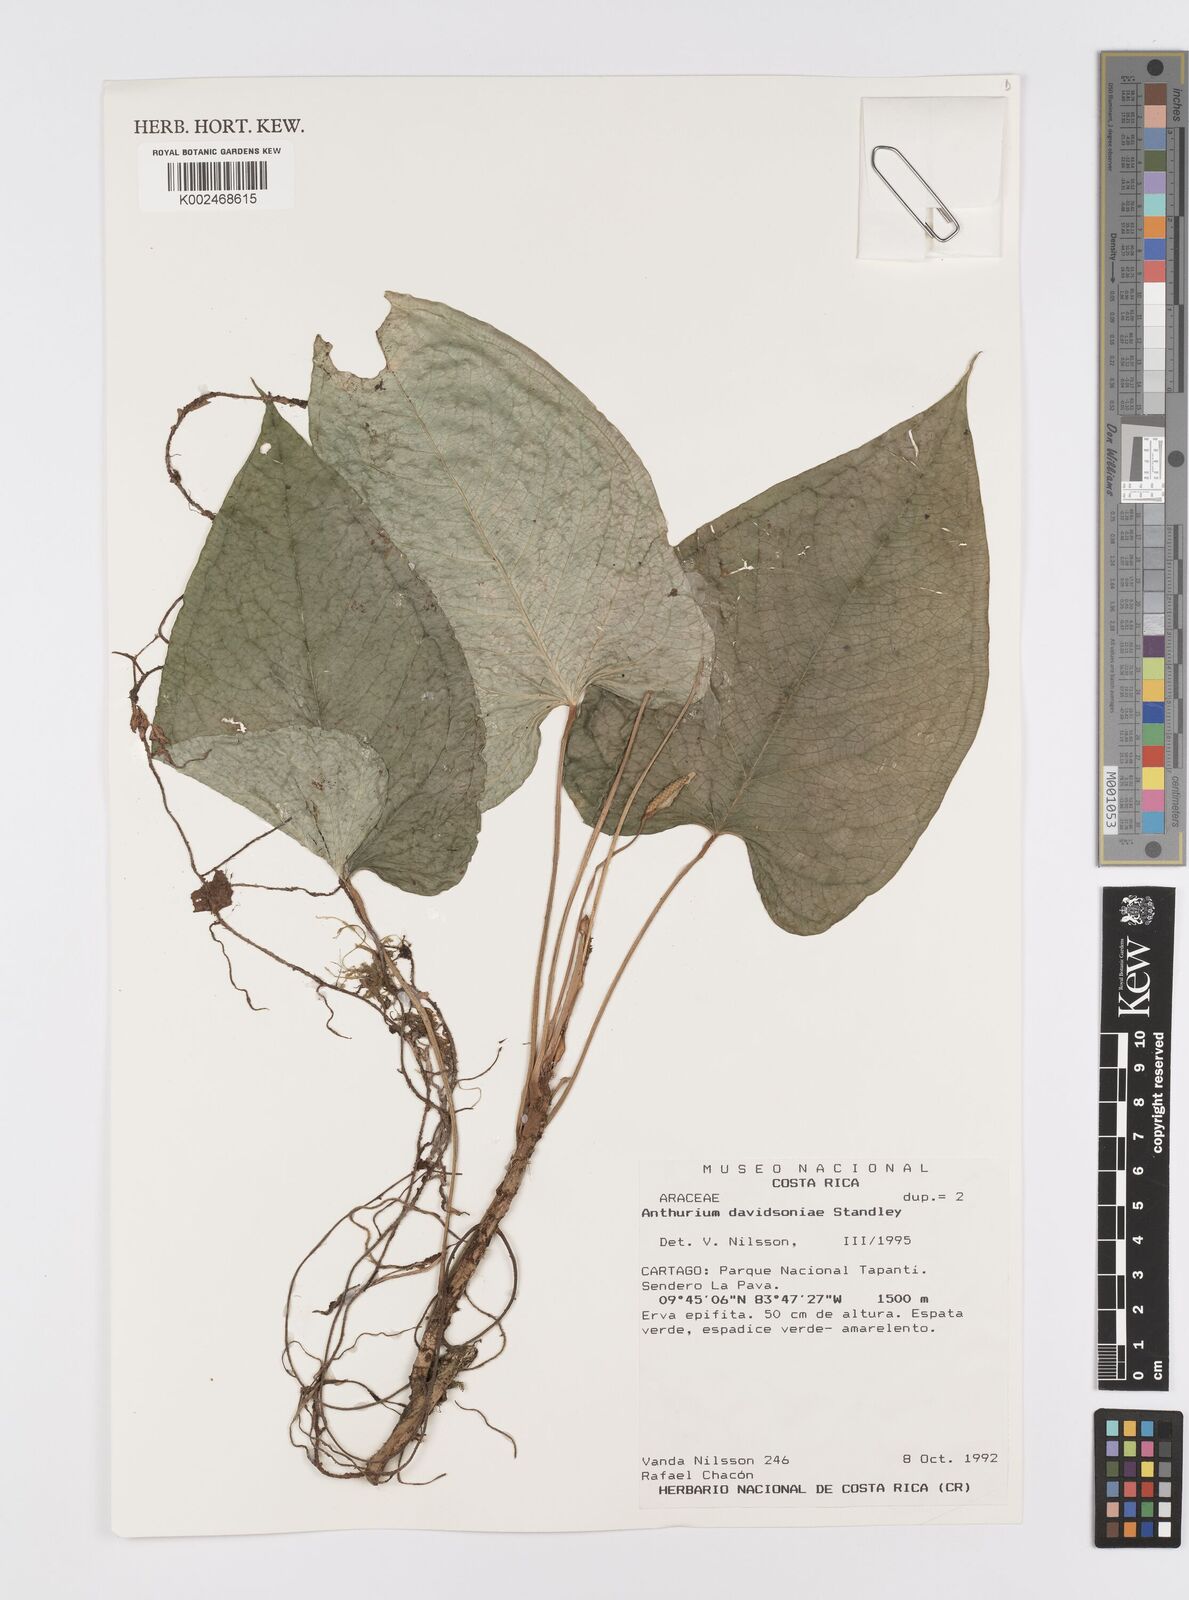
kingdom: Plantae
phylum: Tracheophyta
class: Liliopsida
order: Alismatales
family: Araceae
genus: Anthurium
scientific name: Anthurium davidsoniae
